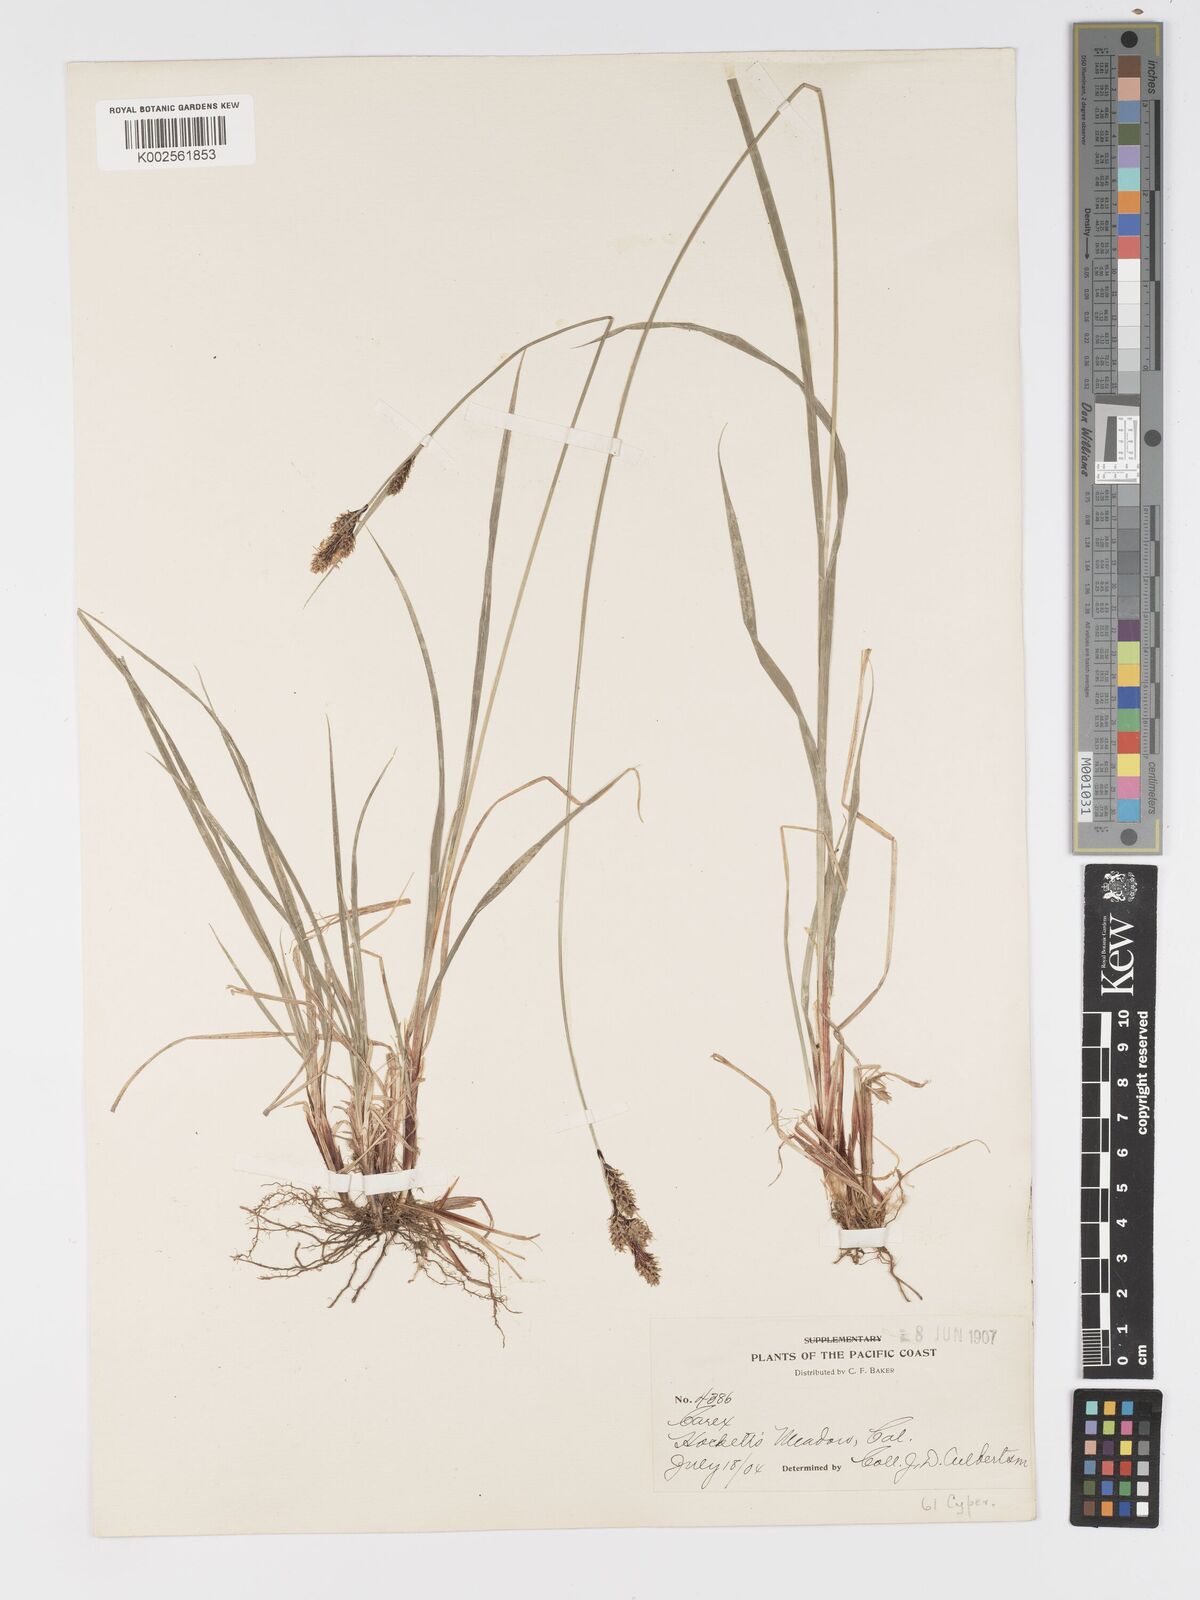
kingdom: Plantae
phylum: Tracheophyta
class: Liliopsida
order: Poales
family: Cyperaceae
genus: Carex
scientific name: Carex buxbaumii
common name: Club sedge
